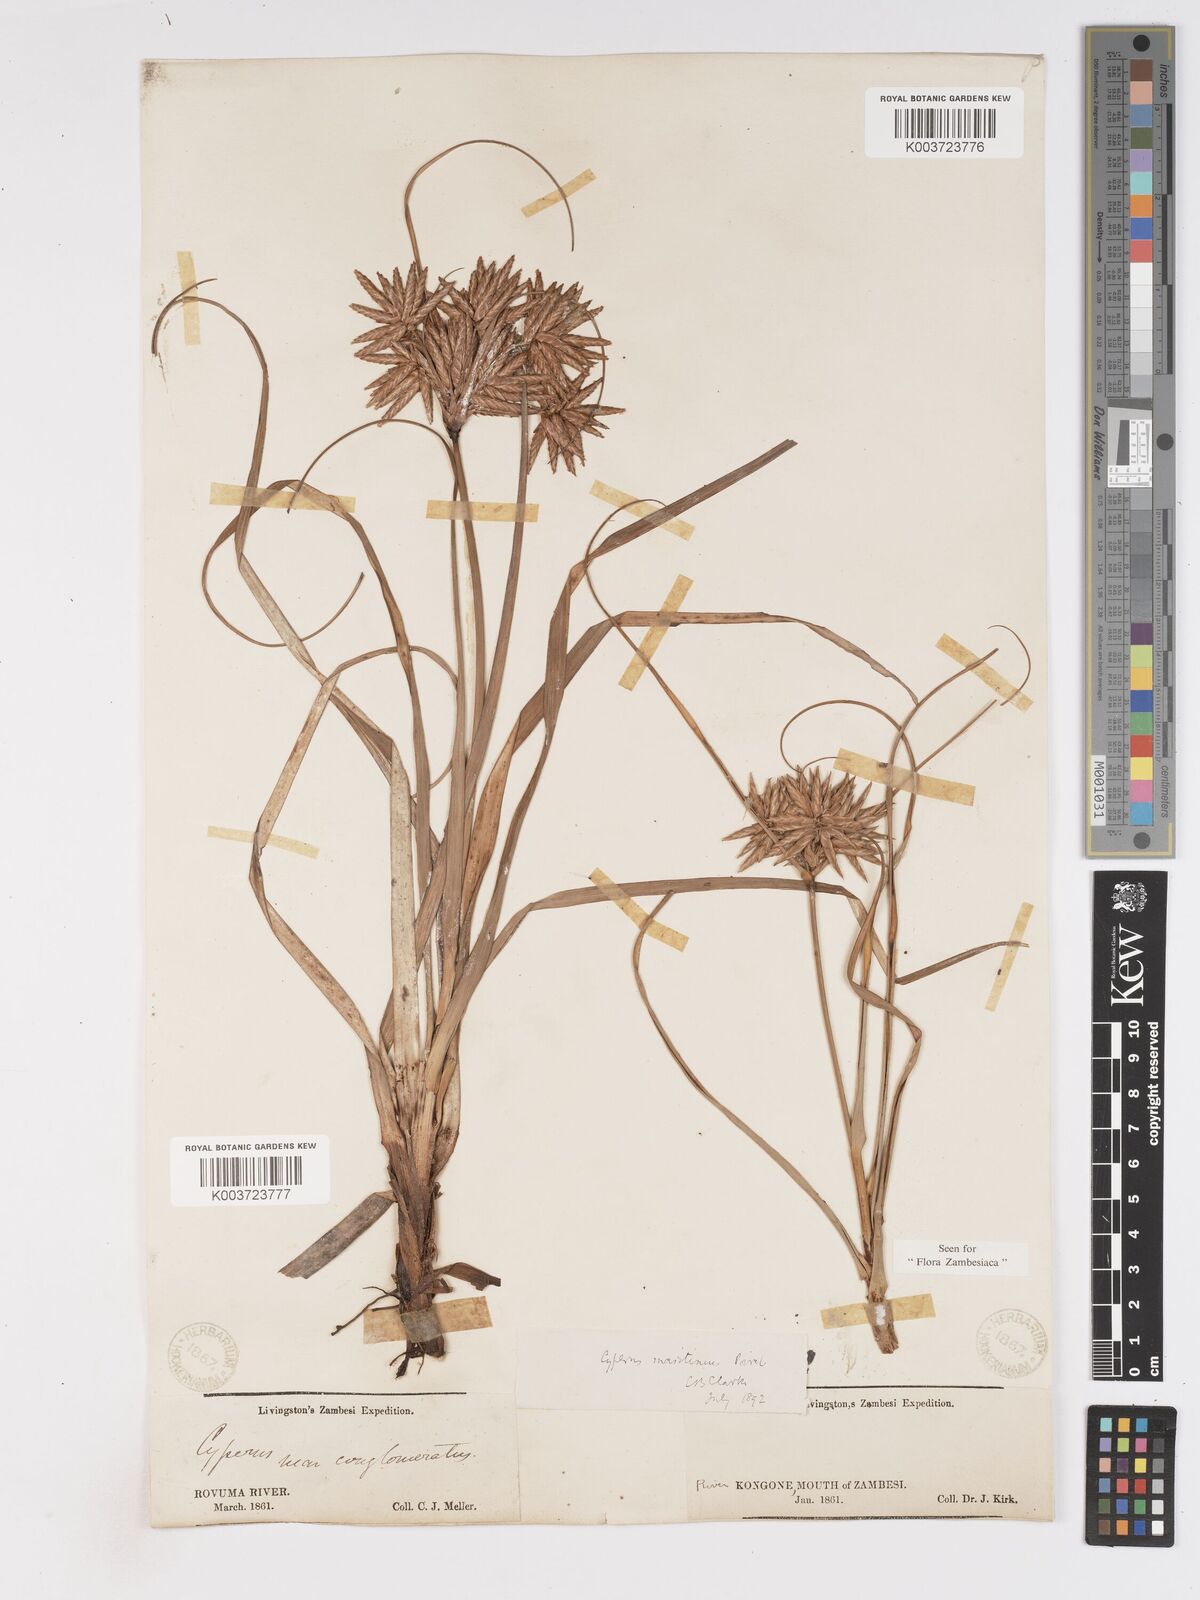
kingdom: Plantae
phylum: Tracheophyta
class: Liliopsida
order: Poales
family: Cyperaceae
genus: Cyperus
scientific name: Cyperus crassipes
